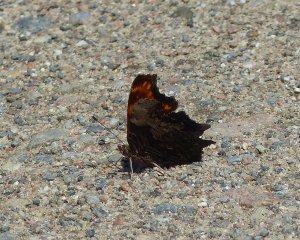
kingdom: Animalia
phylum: Arthropoda
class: Insecta
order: Lepidoptera
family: Nymphalidae
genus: Polygonia
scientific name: Polygonia progne
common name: Gray Comma
